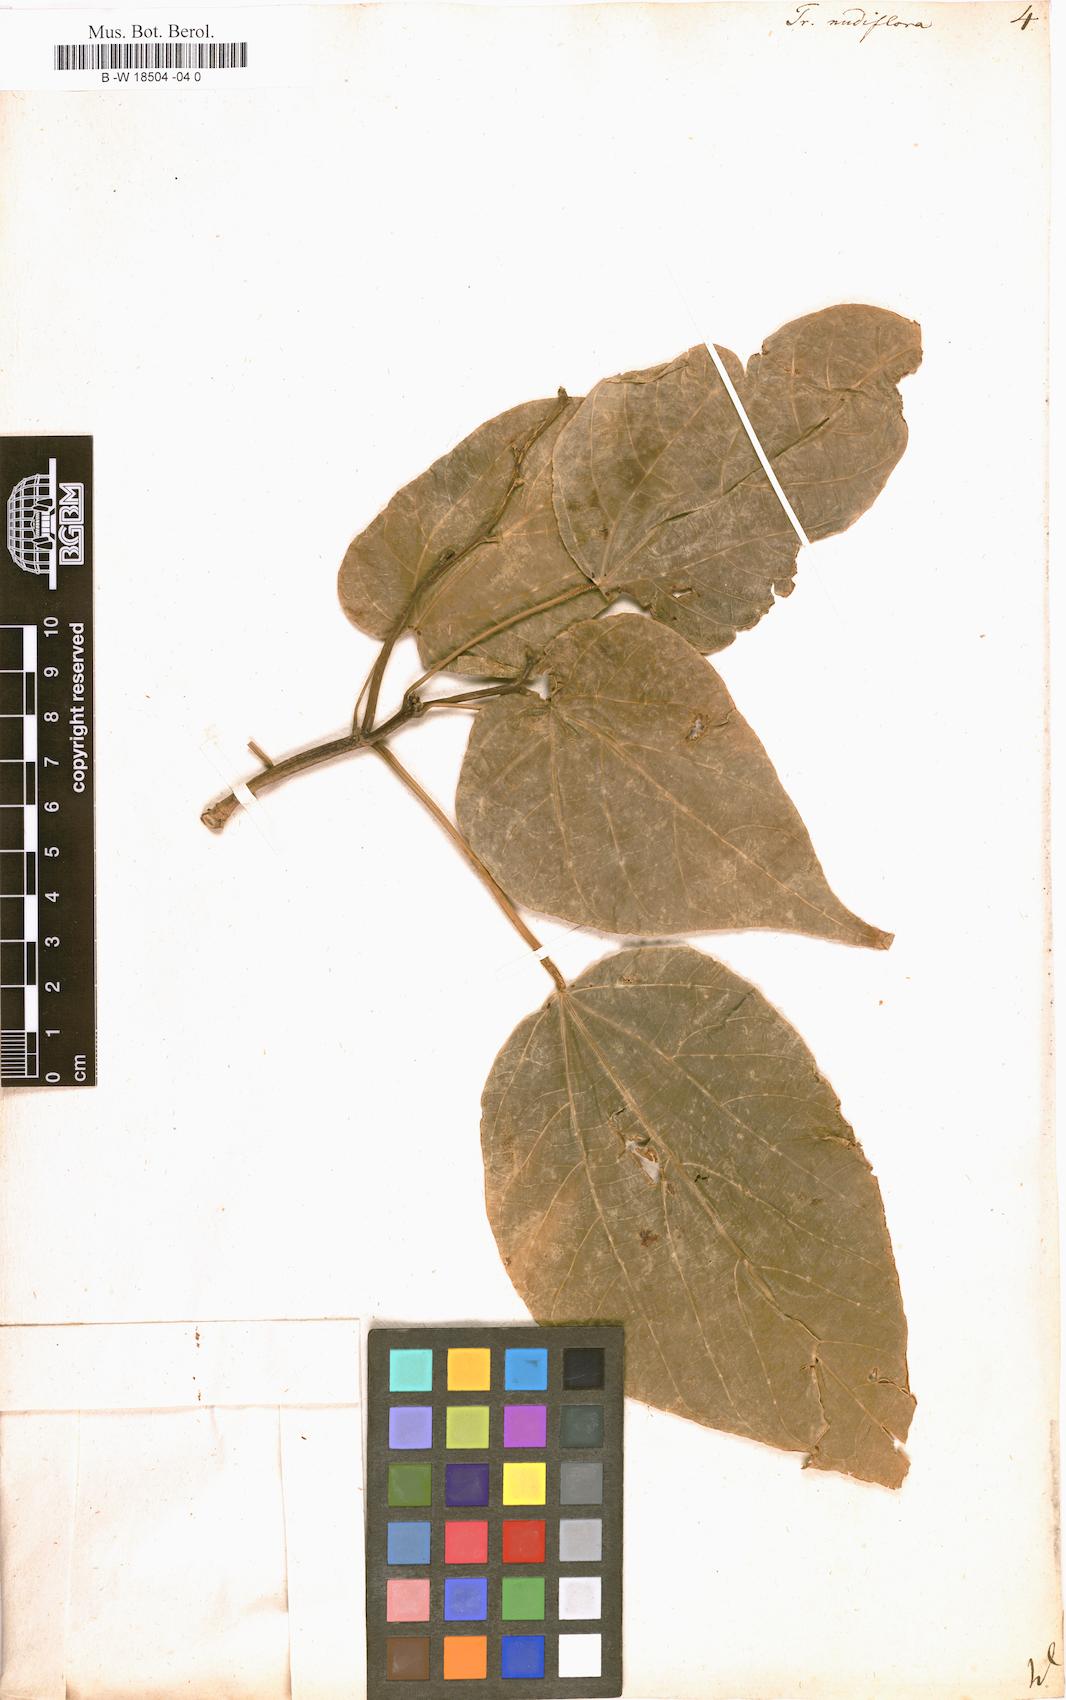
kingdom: Plantae
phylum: Tracheophyta
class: Magnoliopsida
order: Malpighiales
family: Euphorbiaceae
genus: Mallotus
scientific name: Mallotus nudiflorus
